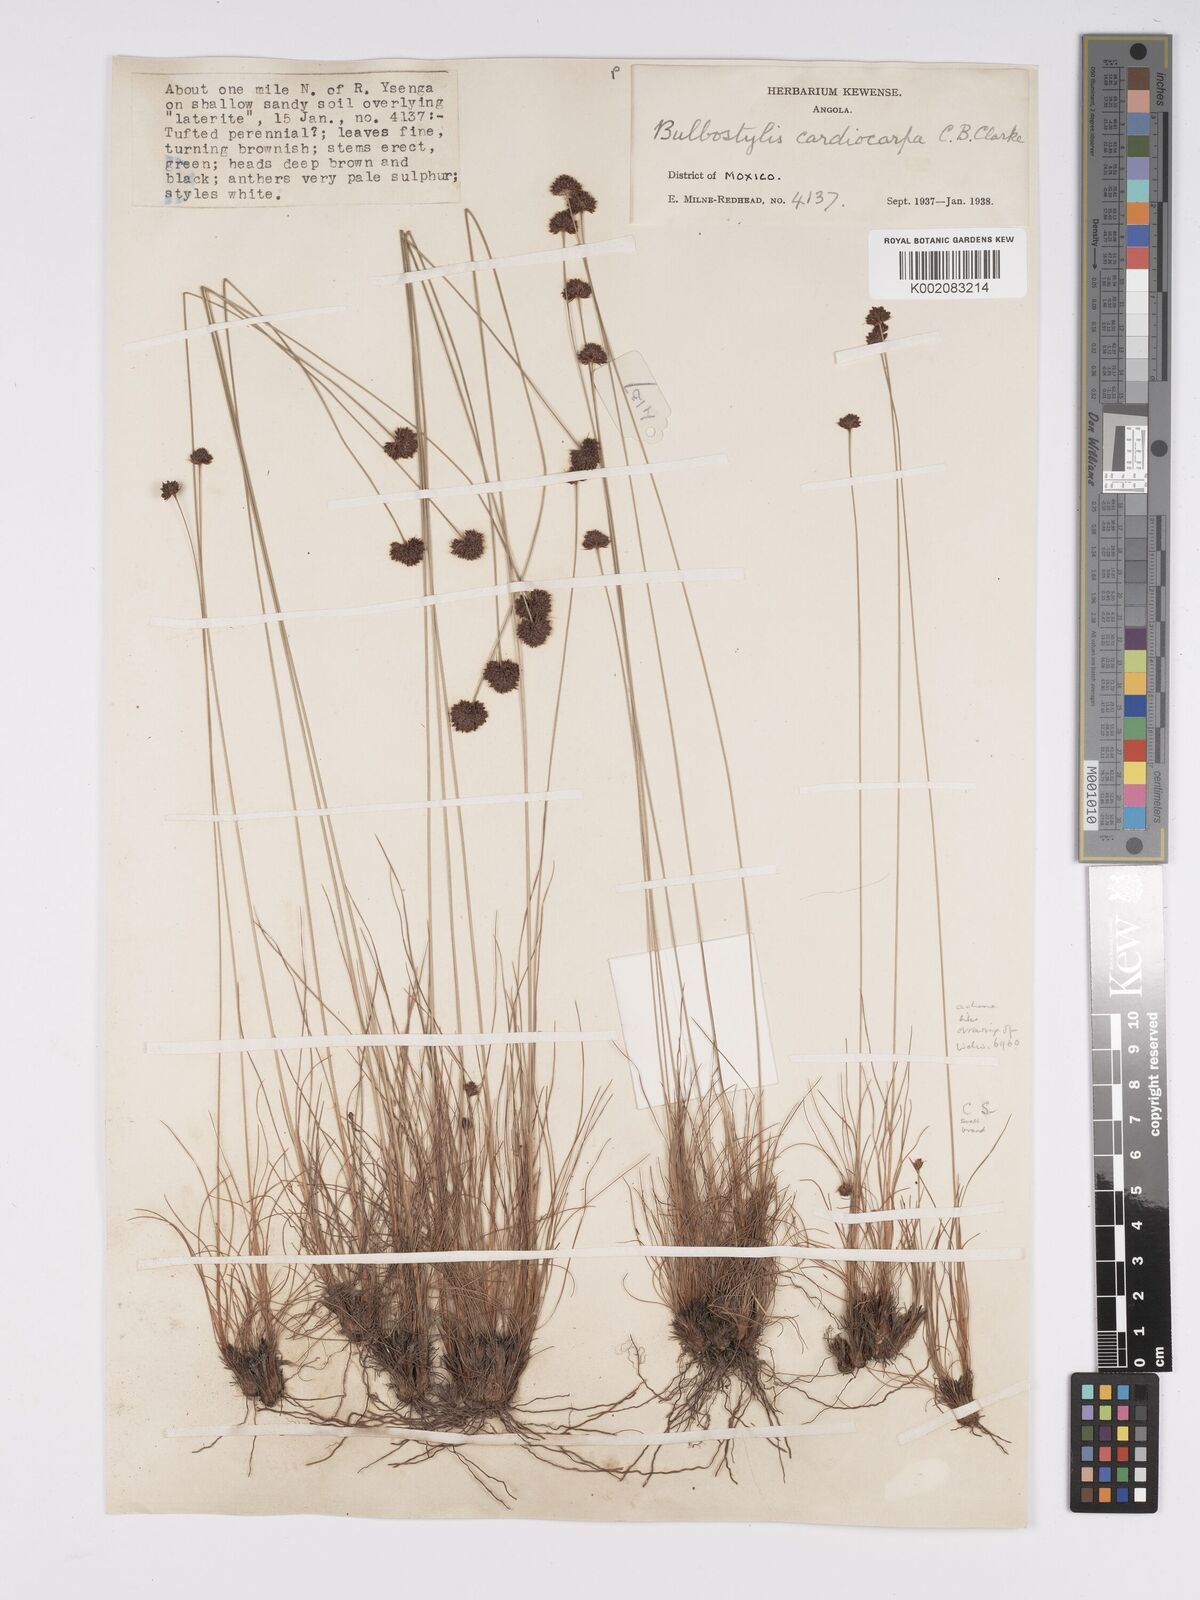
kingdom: Plantae
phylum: Tracheophyta
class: Liliopsida
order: Poales
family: Cyperaceae
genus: Bulbostylis
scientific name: Bulbostylis filamentosa
